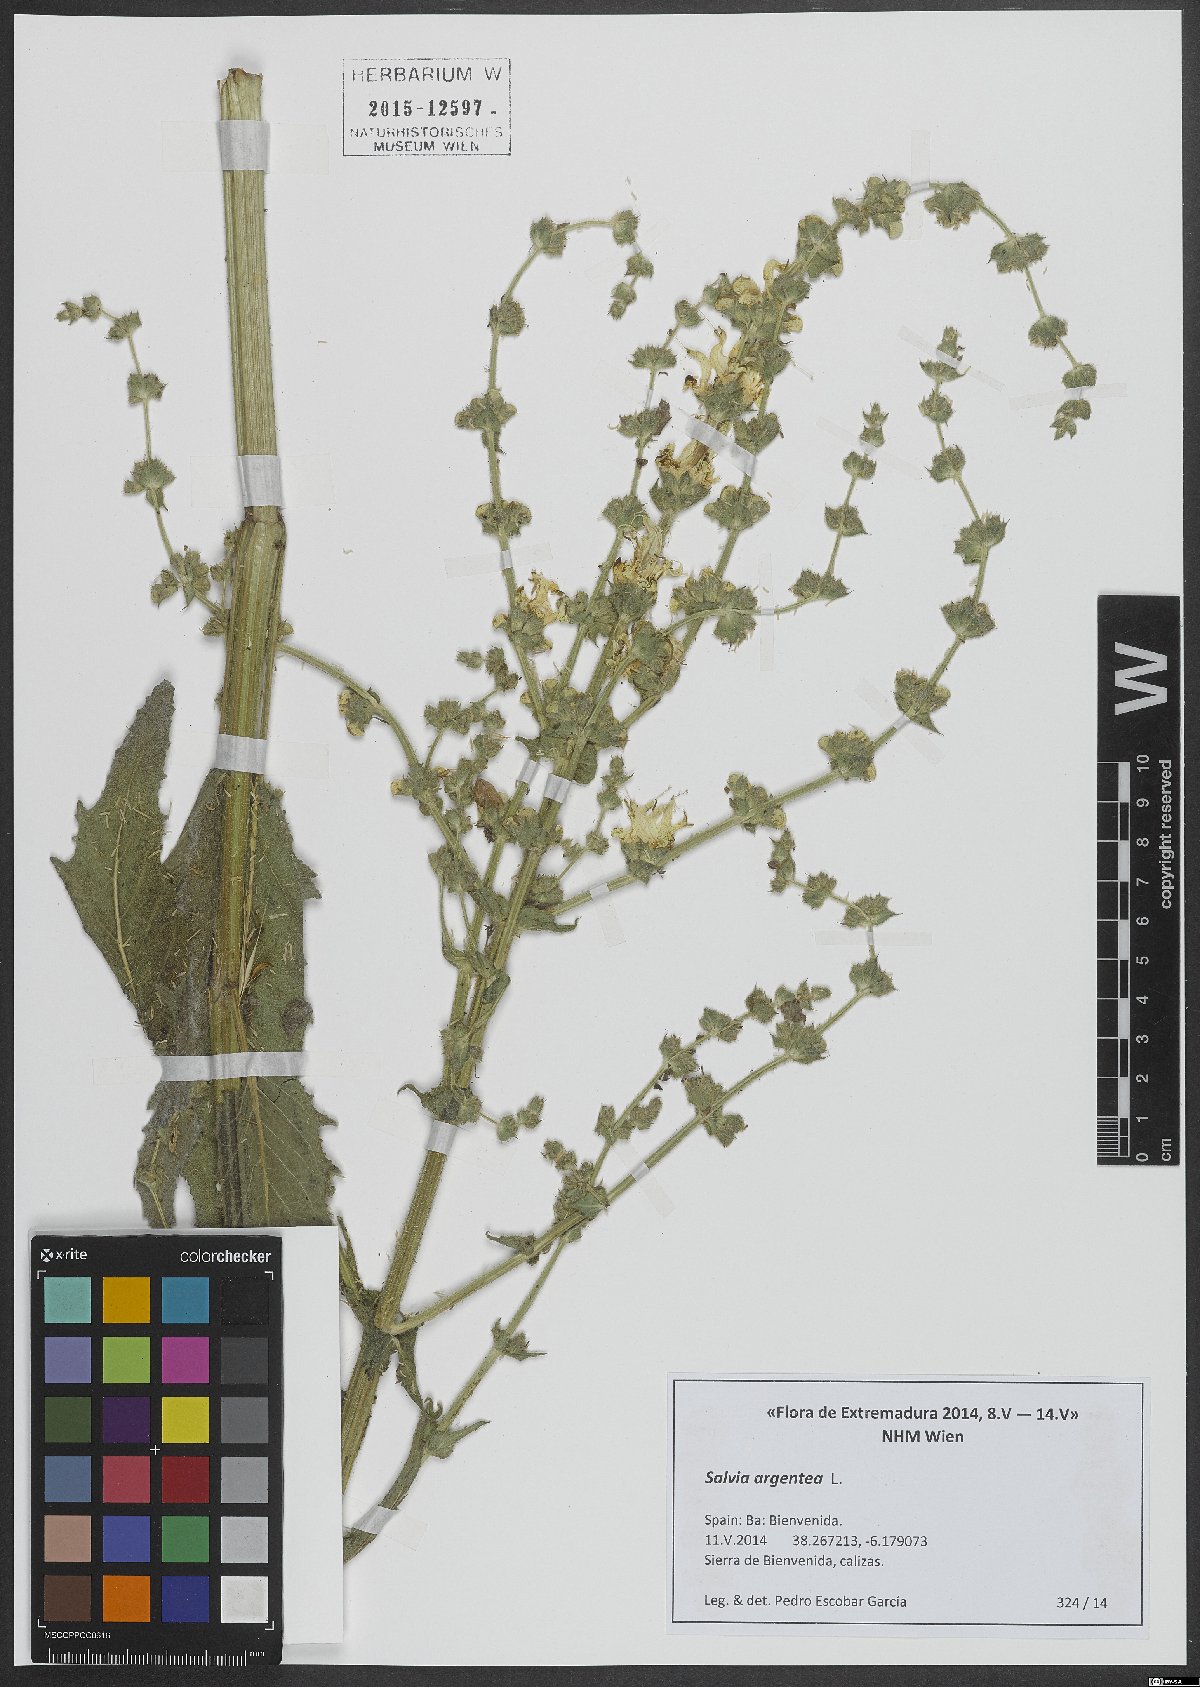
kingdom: Plantae
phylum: Tracheophyta
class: Magnoliopsida
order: Lamiales
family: Lamiaceae
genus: Salvia
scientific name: Salvia argentea
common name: Silver sage
